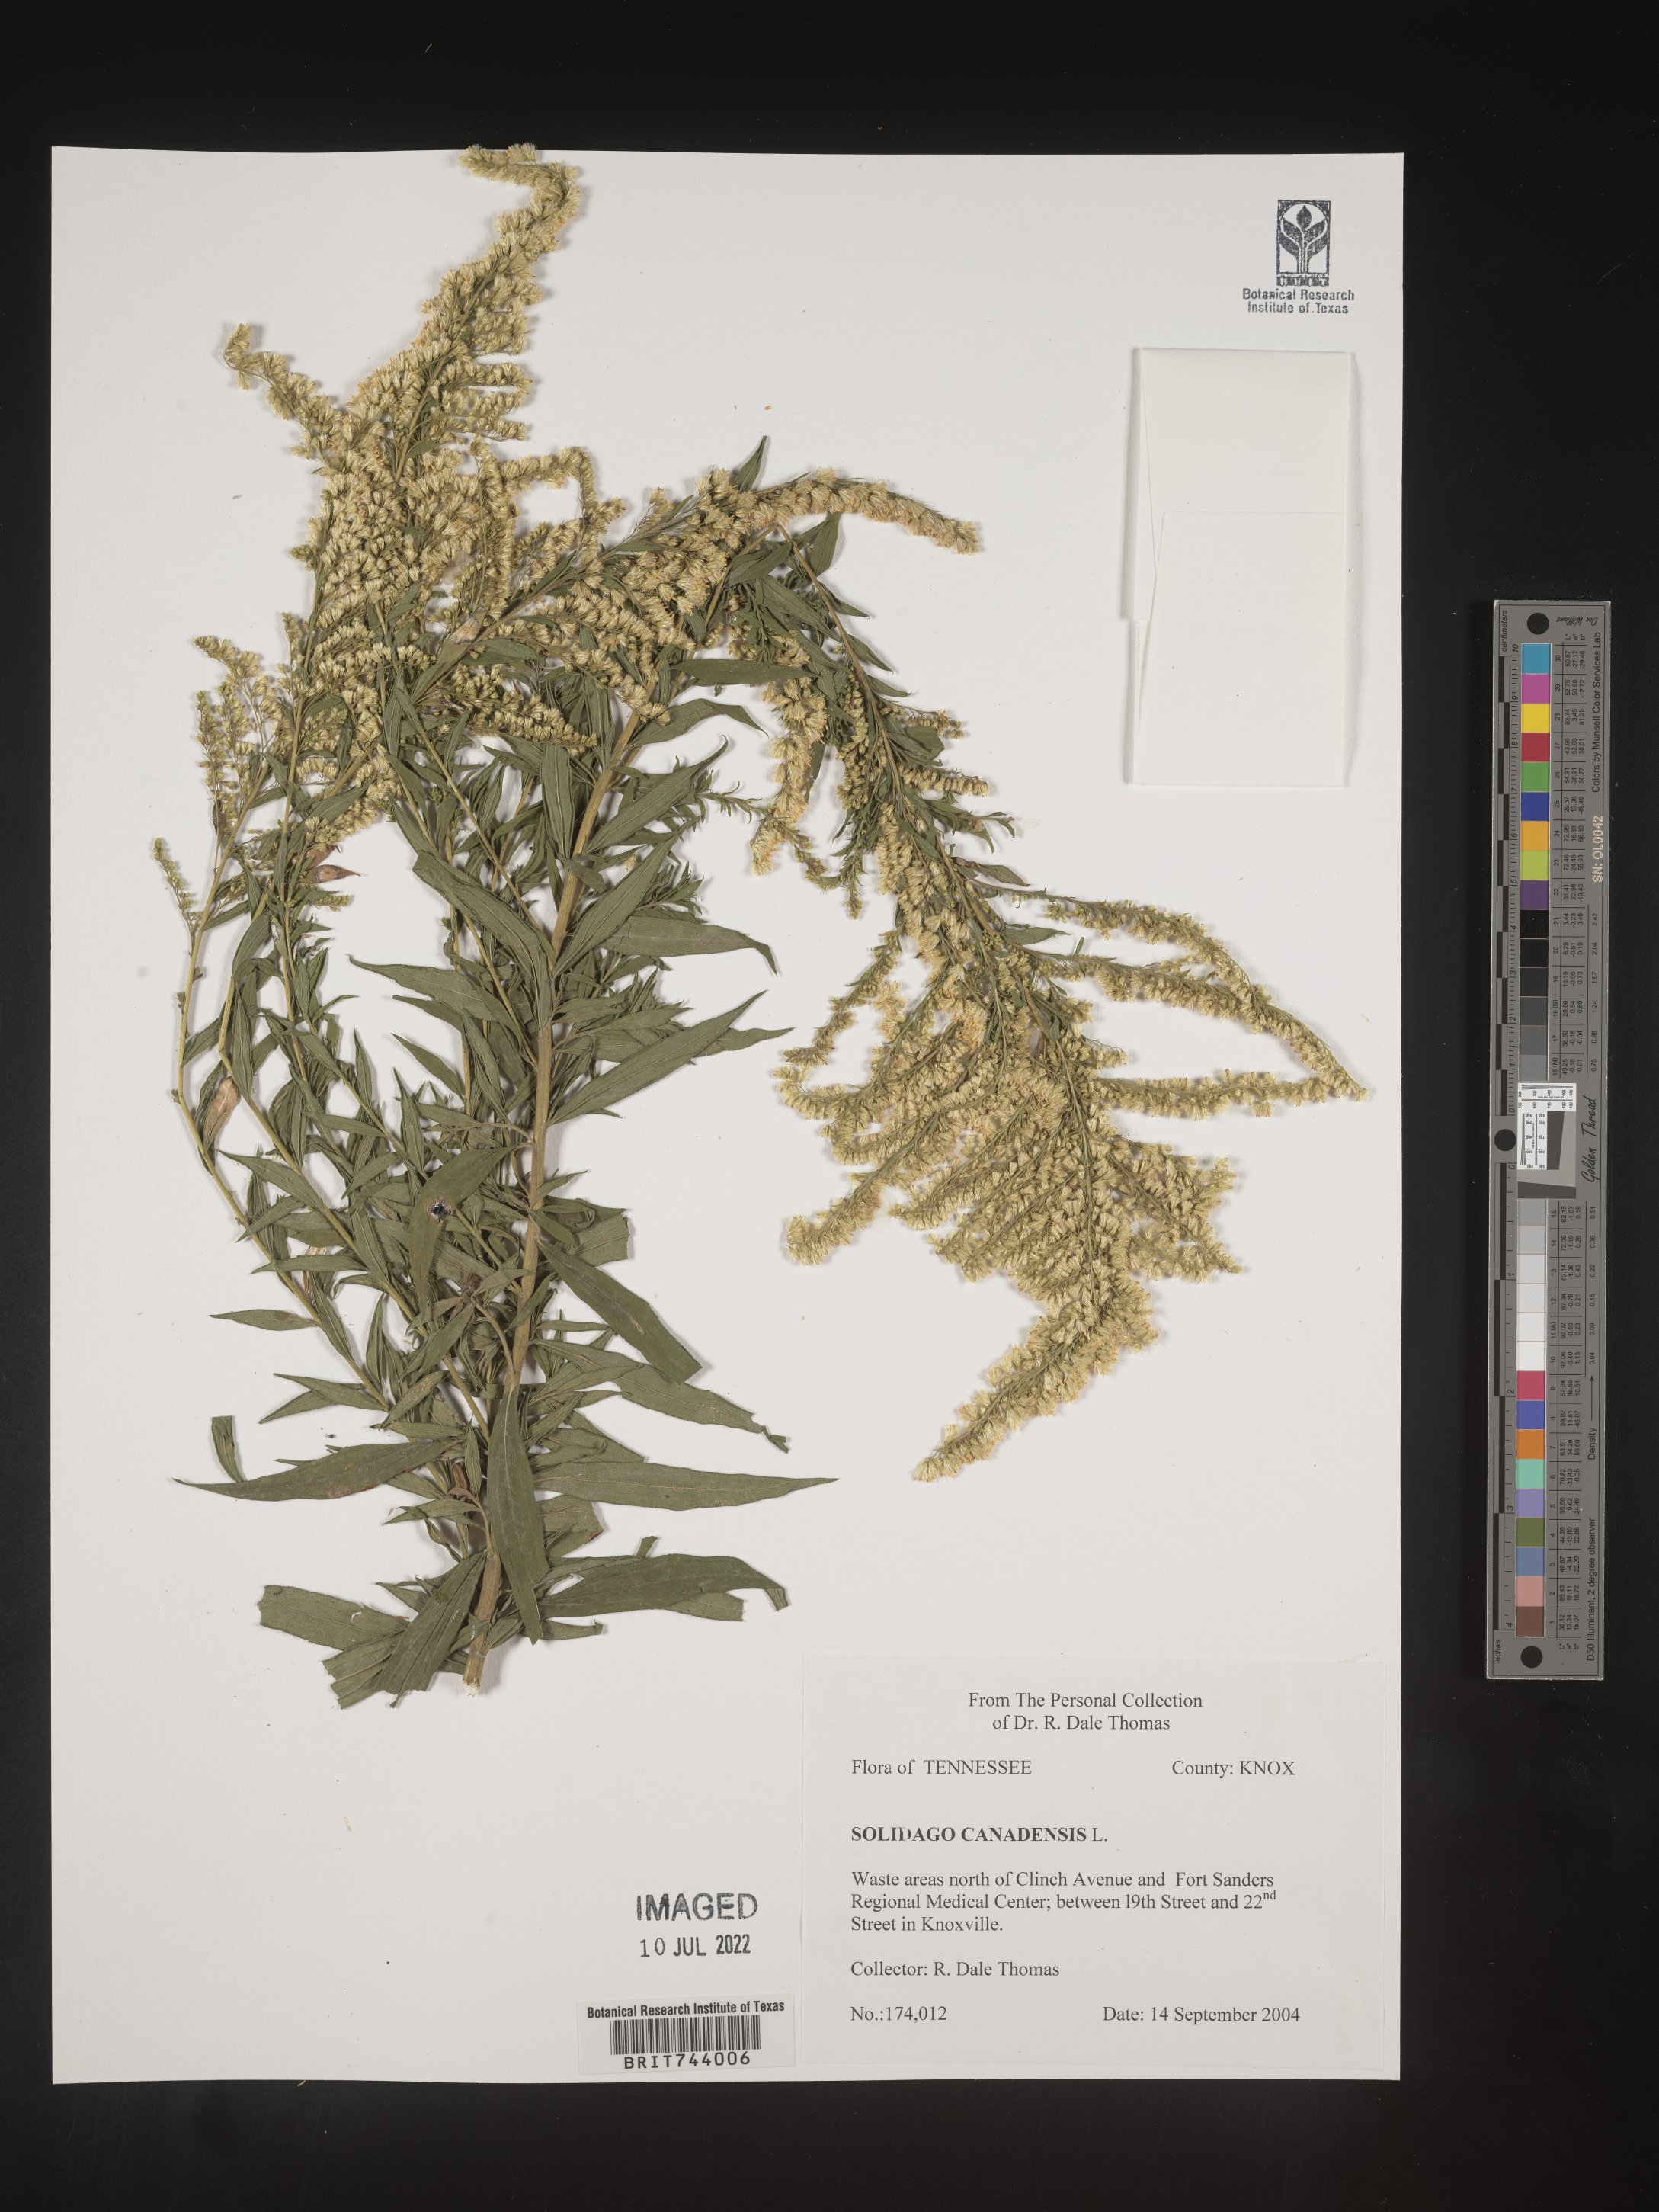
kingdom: Plantae
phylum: Tracheophyta
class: Magnoliopsida
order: Asterales
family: Asteraceae
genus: Solidago
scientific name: Solidago altissima
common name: Late goldenrod
